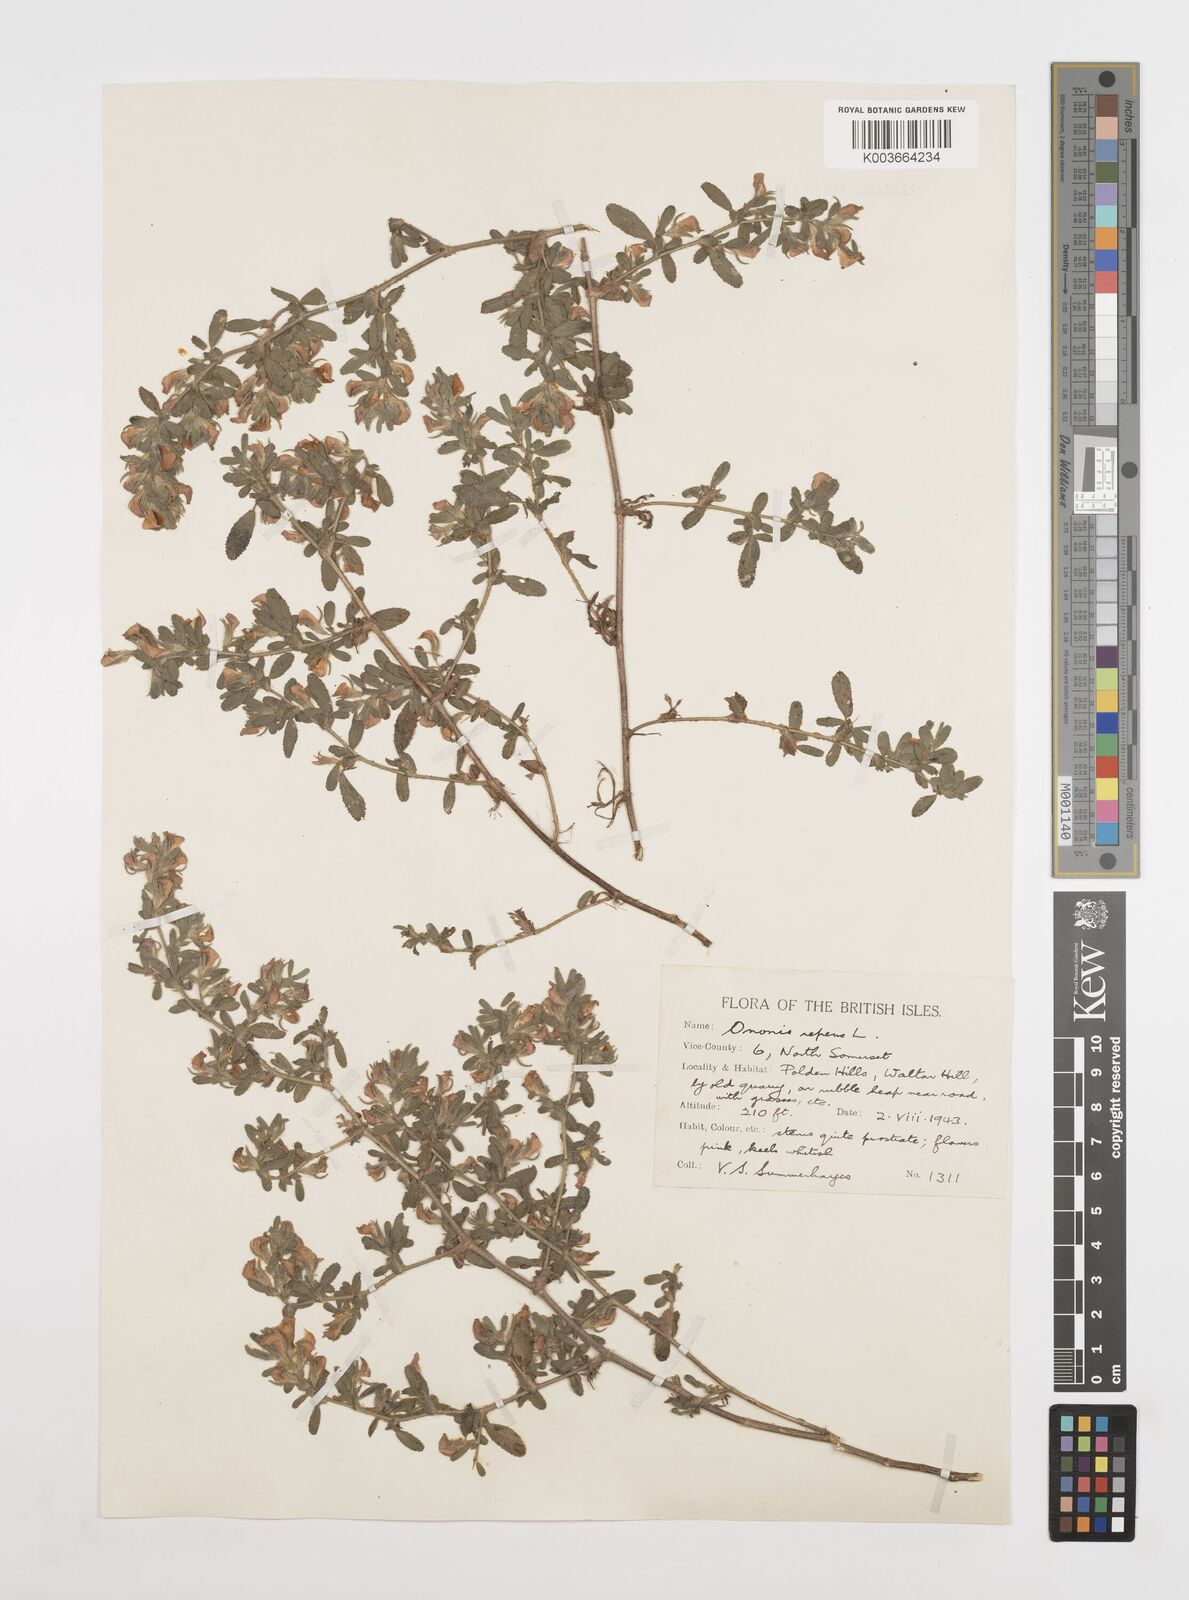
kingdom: Plantae
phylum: Tracheophyta
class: Magnoliopsida
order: Fabales
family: Fabaceae
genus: Ononis
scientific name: Ononis spinosa
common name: Spiny restharrow
